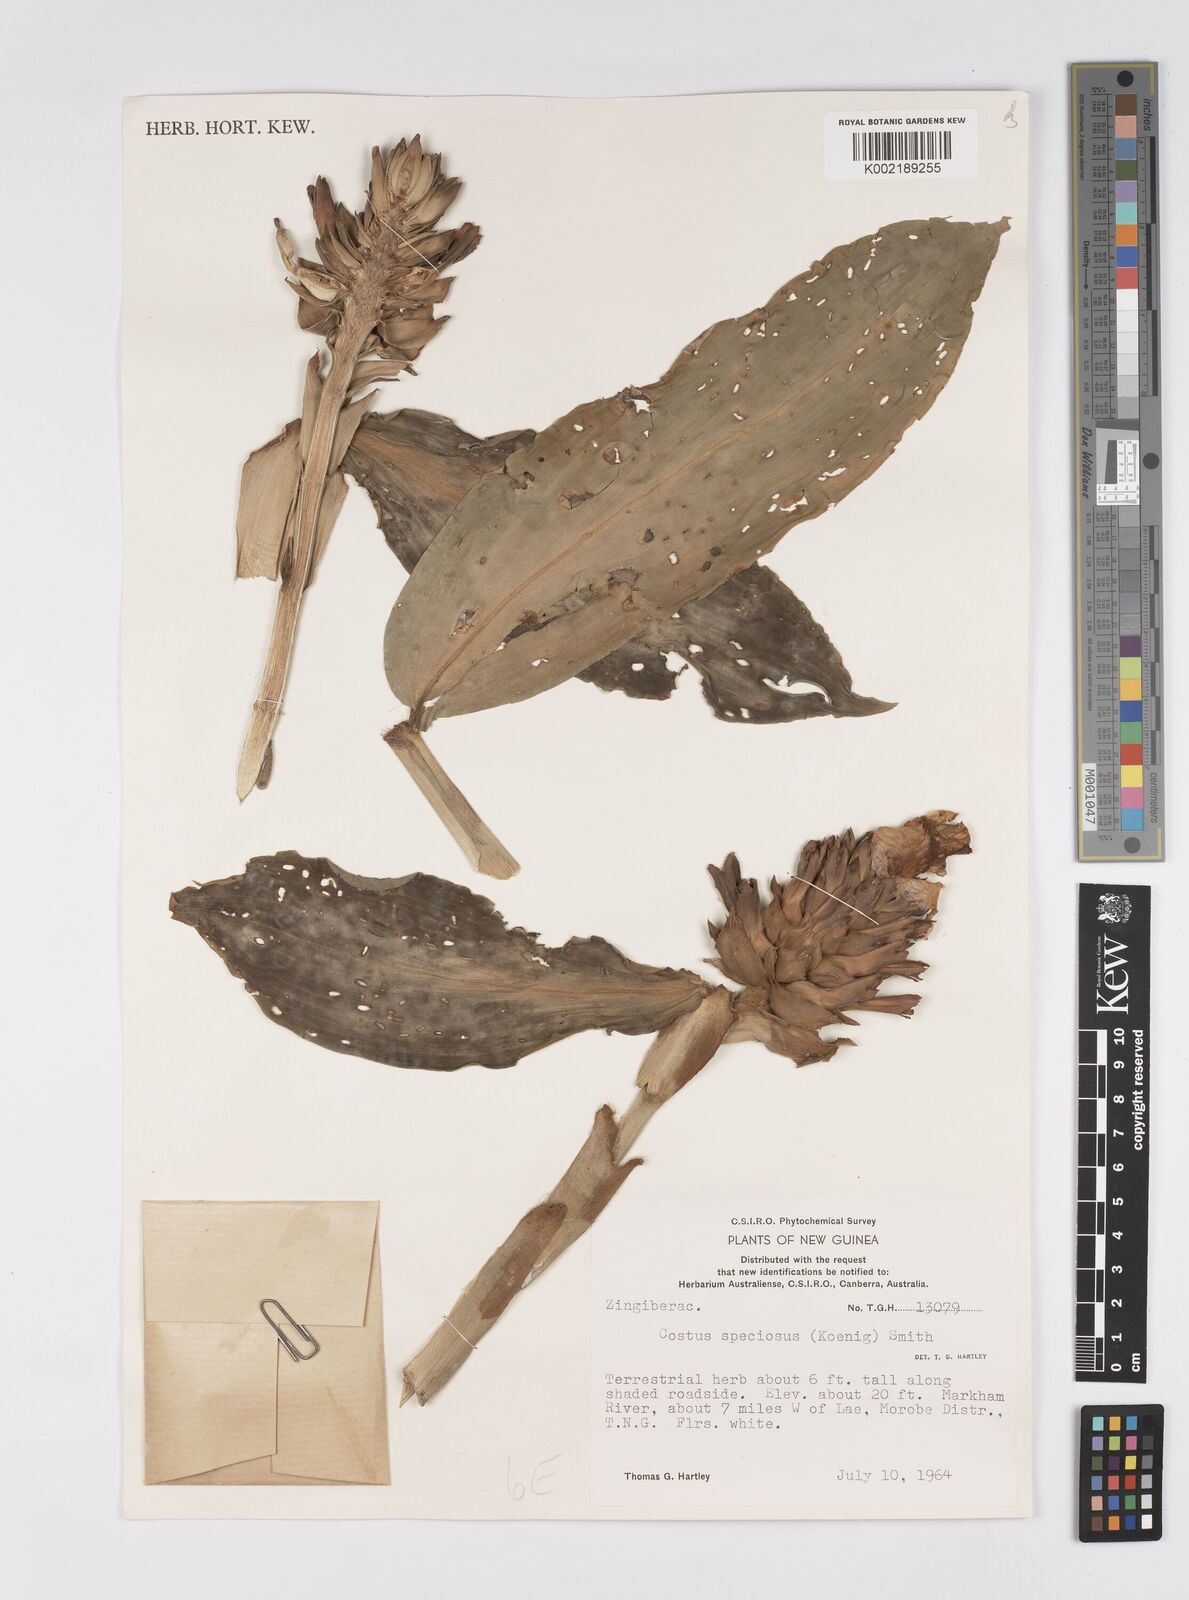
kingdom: Plantae
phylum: Tracheophyta
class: Liliopsida
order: Zingiberales
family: Costaceae
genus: Hellenia
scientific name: Hellenia speciosa
